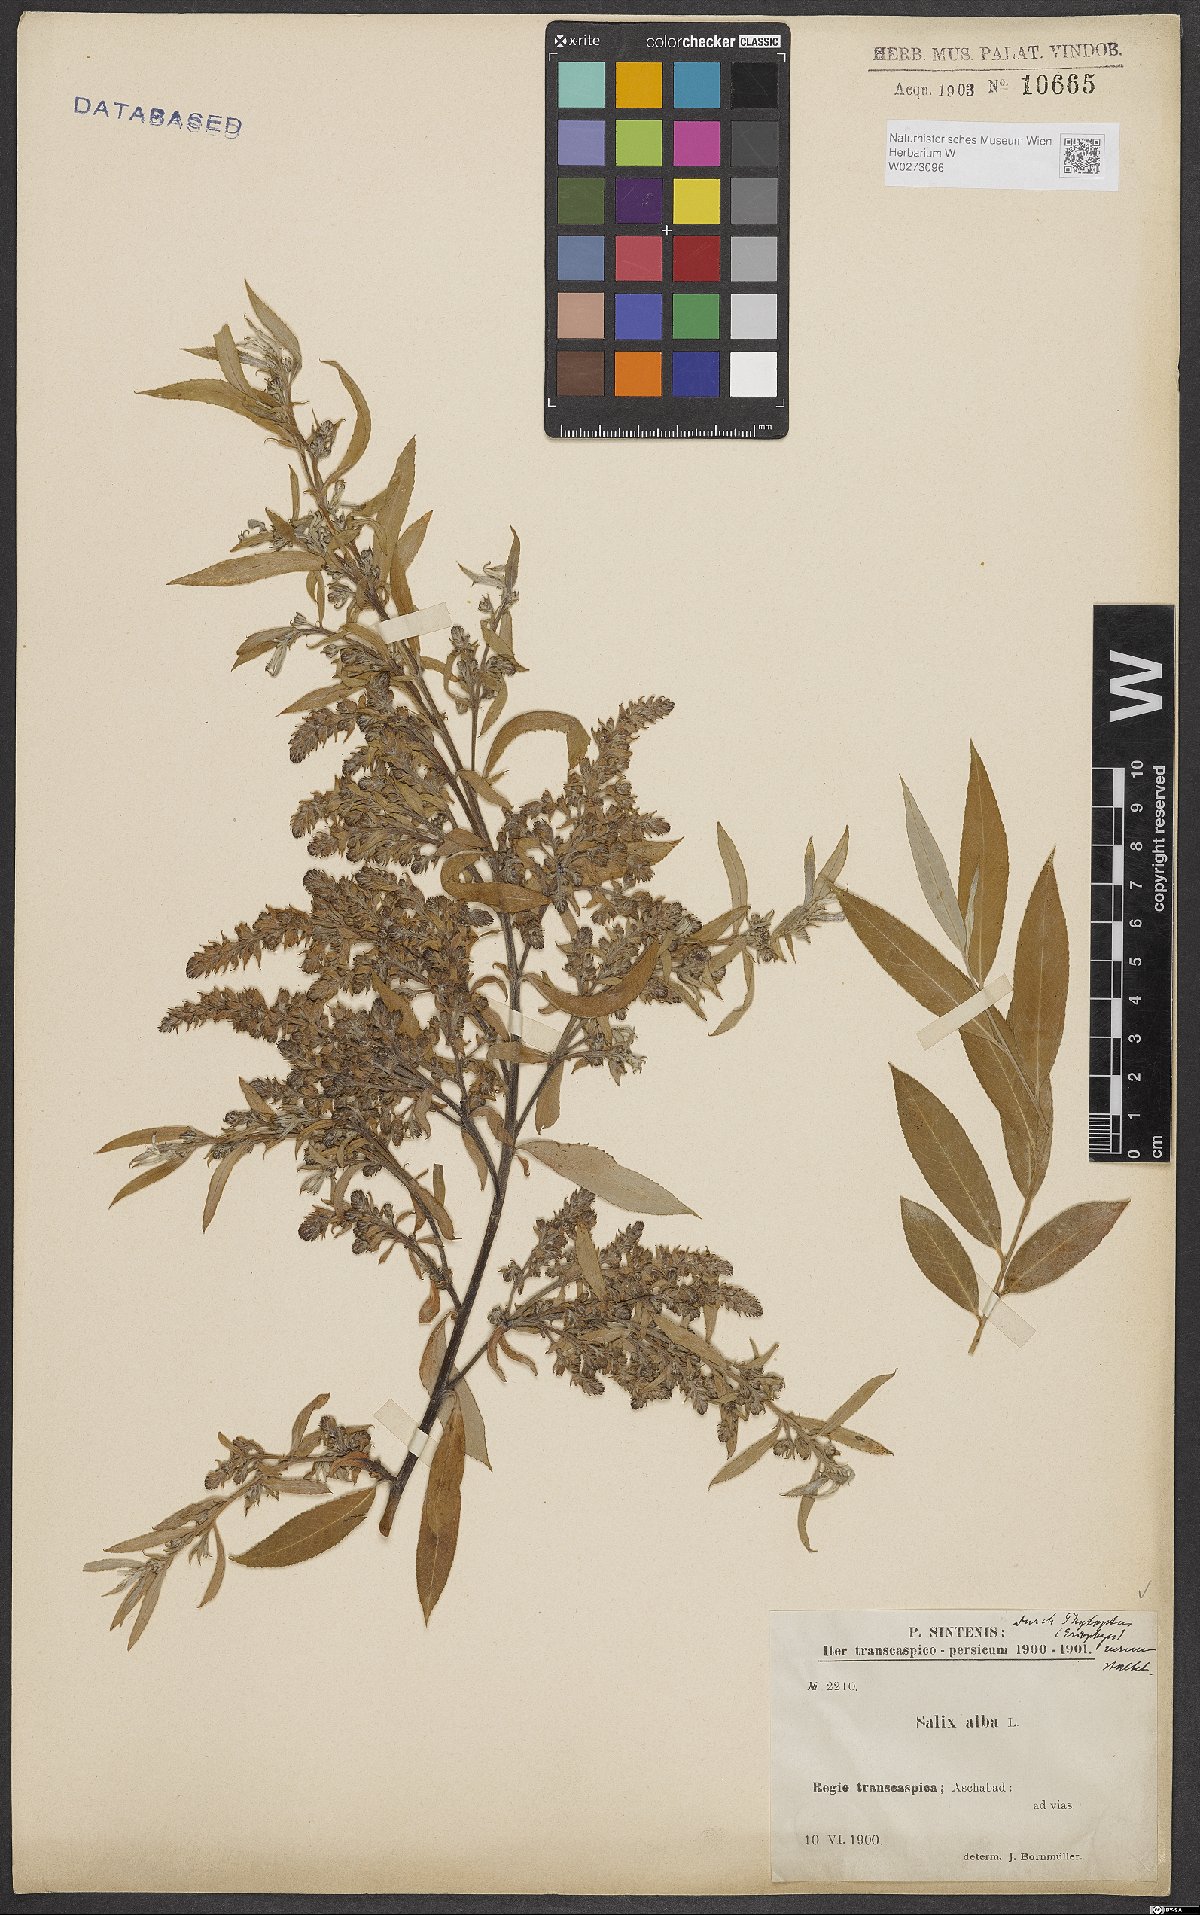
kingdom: Plantae
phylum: Tracheophyta
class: Magnoliopsida
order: Malpighiales
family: Salicaceae
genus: Salix
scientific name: Salix alba
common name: White willow
